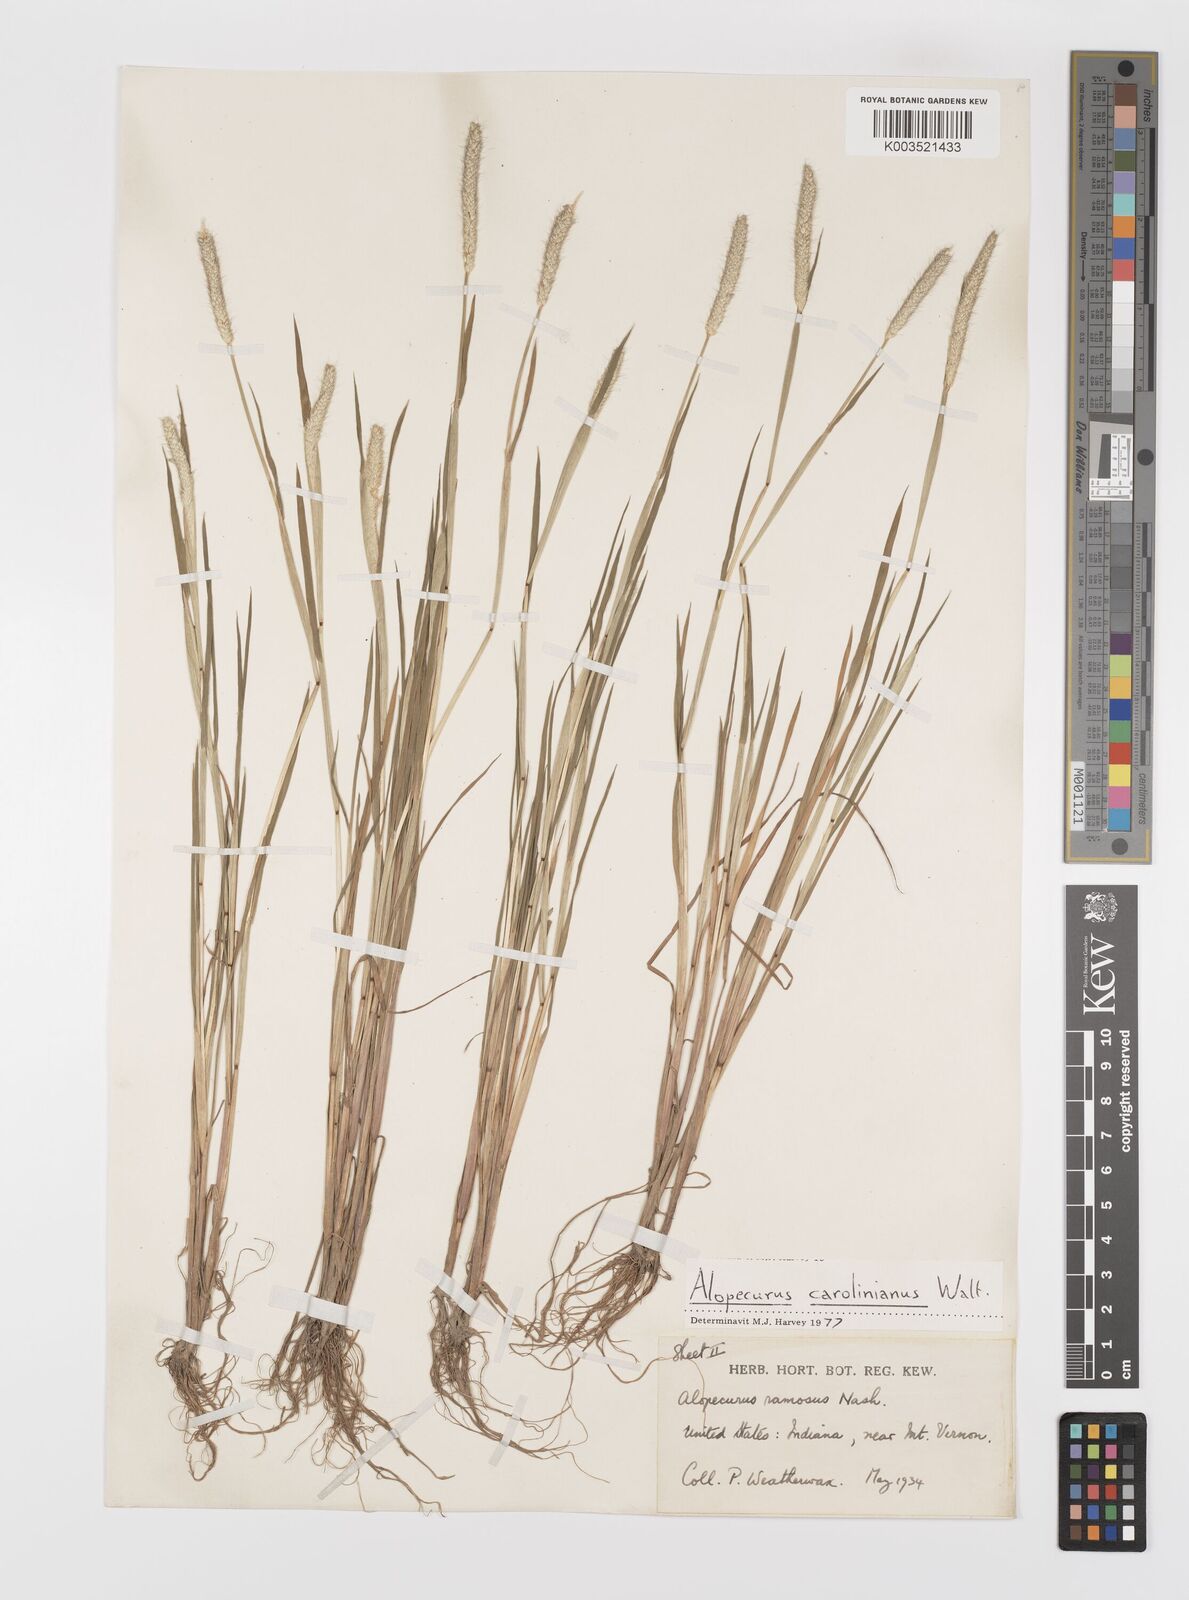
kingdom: Plantae
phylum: Tracheophyta
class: Liliopsida
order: Poales
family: Poaceae
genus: Alopecurus
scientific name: Alopecurus carolinianus
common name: Tufted foxtail
